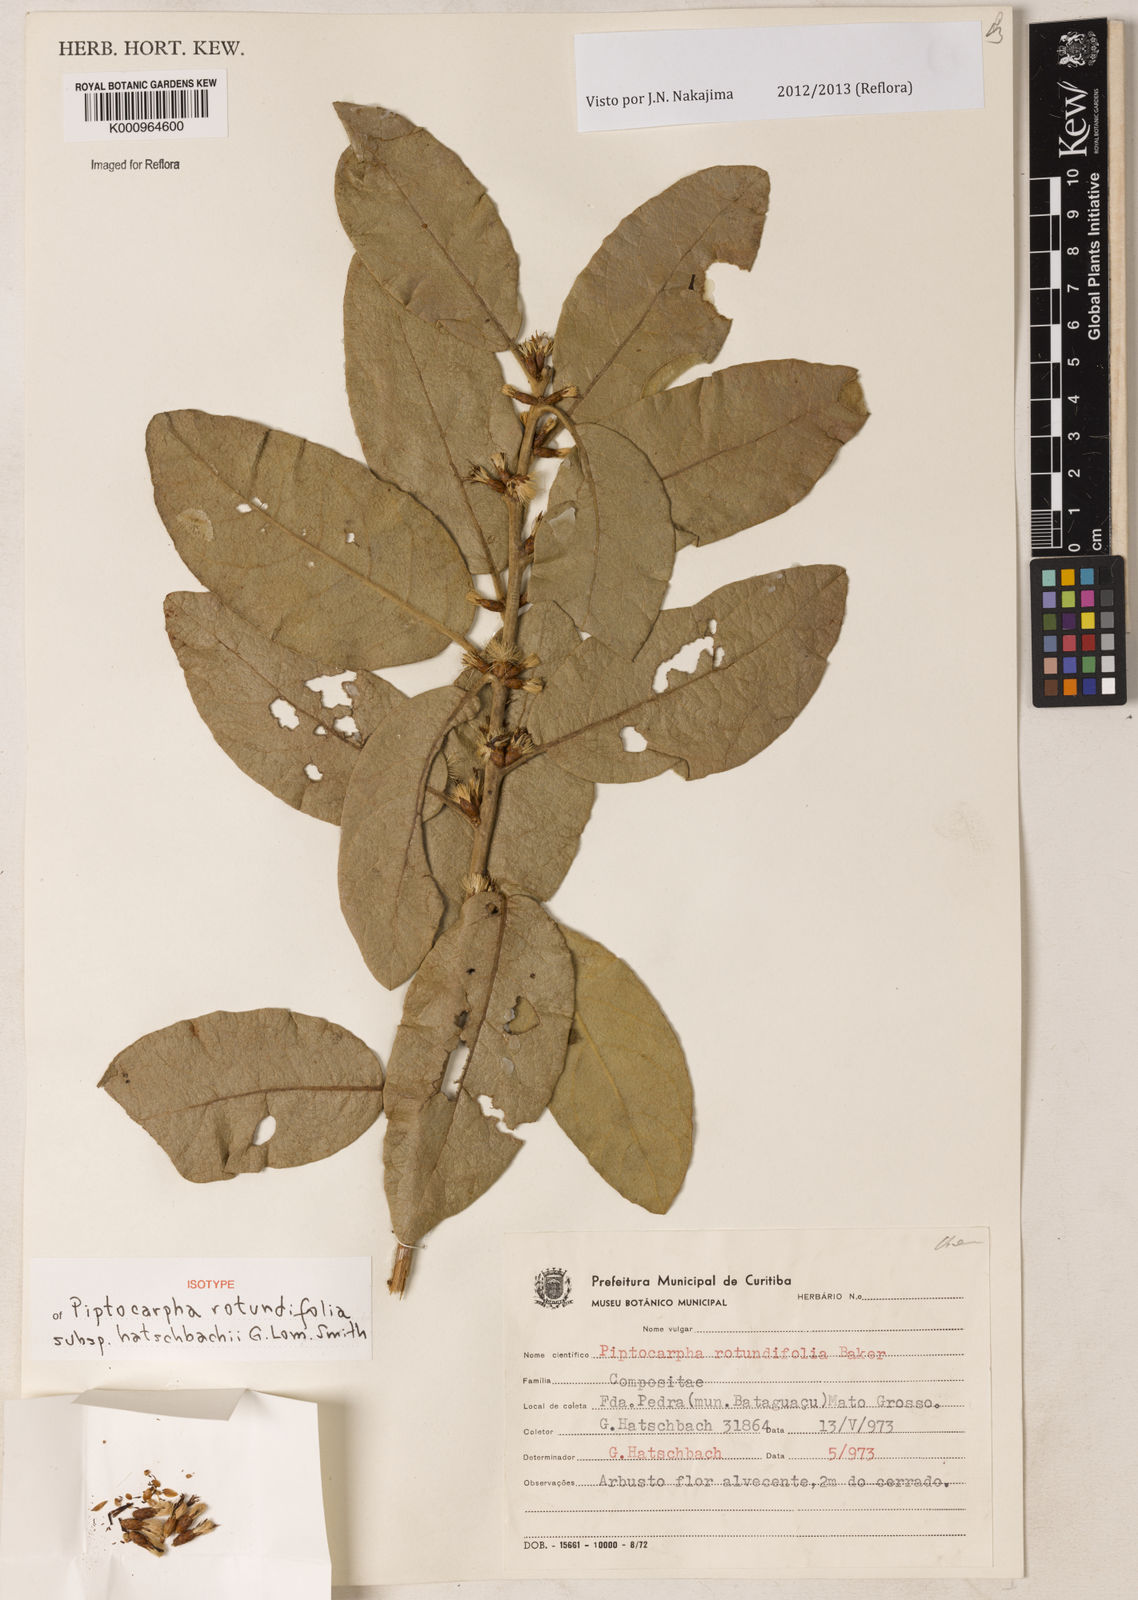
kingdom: Plantae
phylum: Tracheophyta
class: Magnoliopsida
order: Asterales
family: Asteraceae
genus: Piptocarpha
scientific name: Piptocarpha rotundifolia
